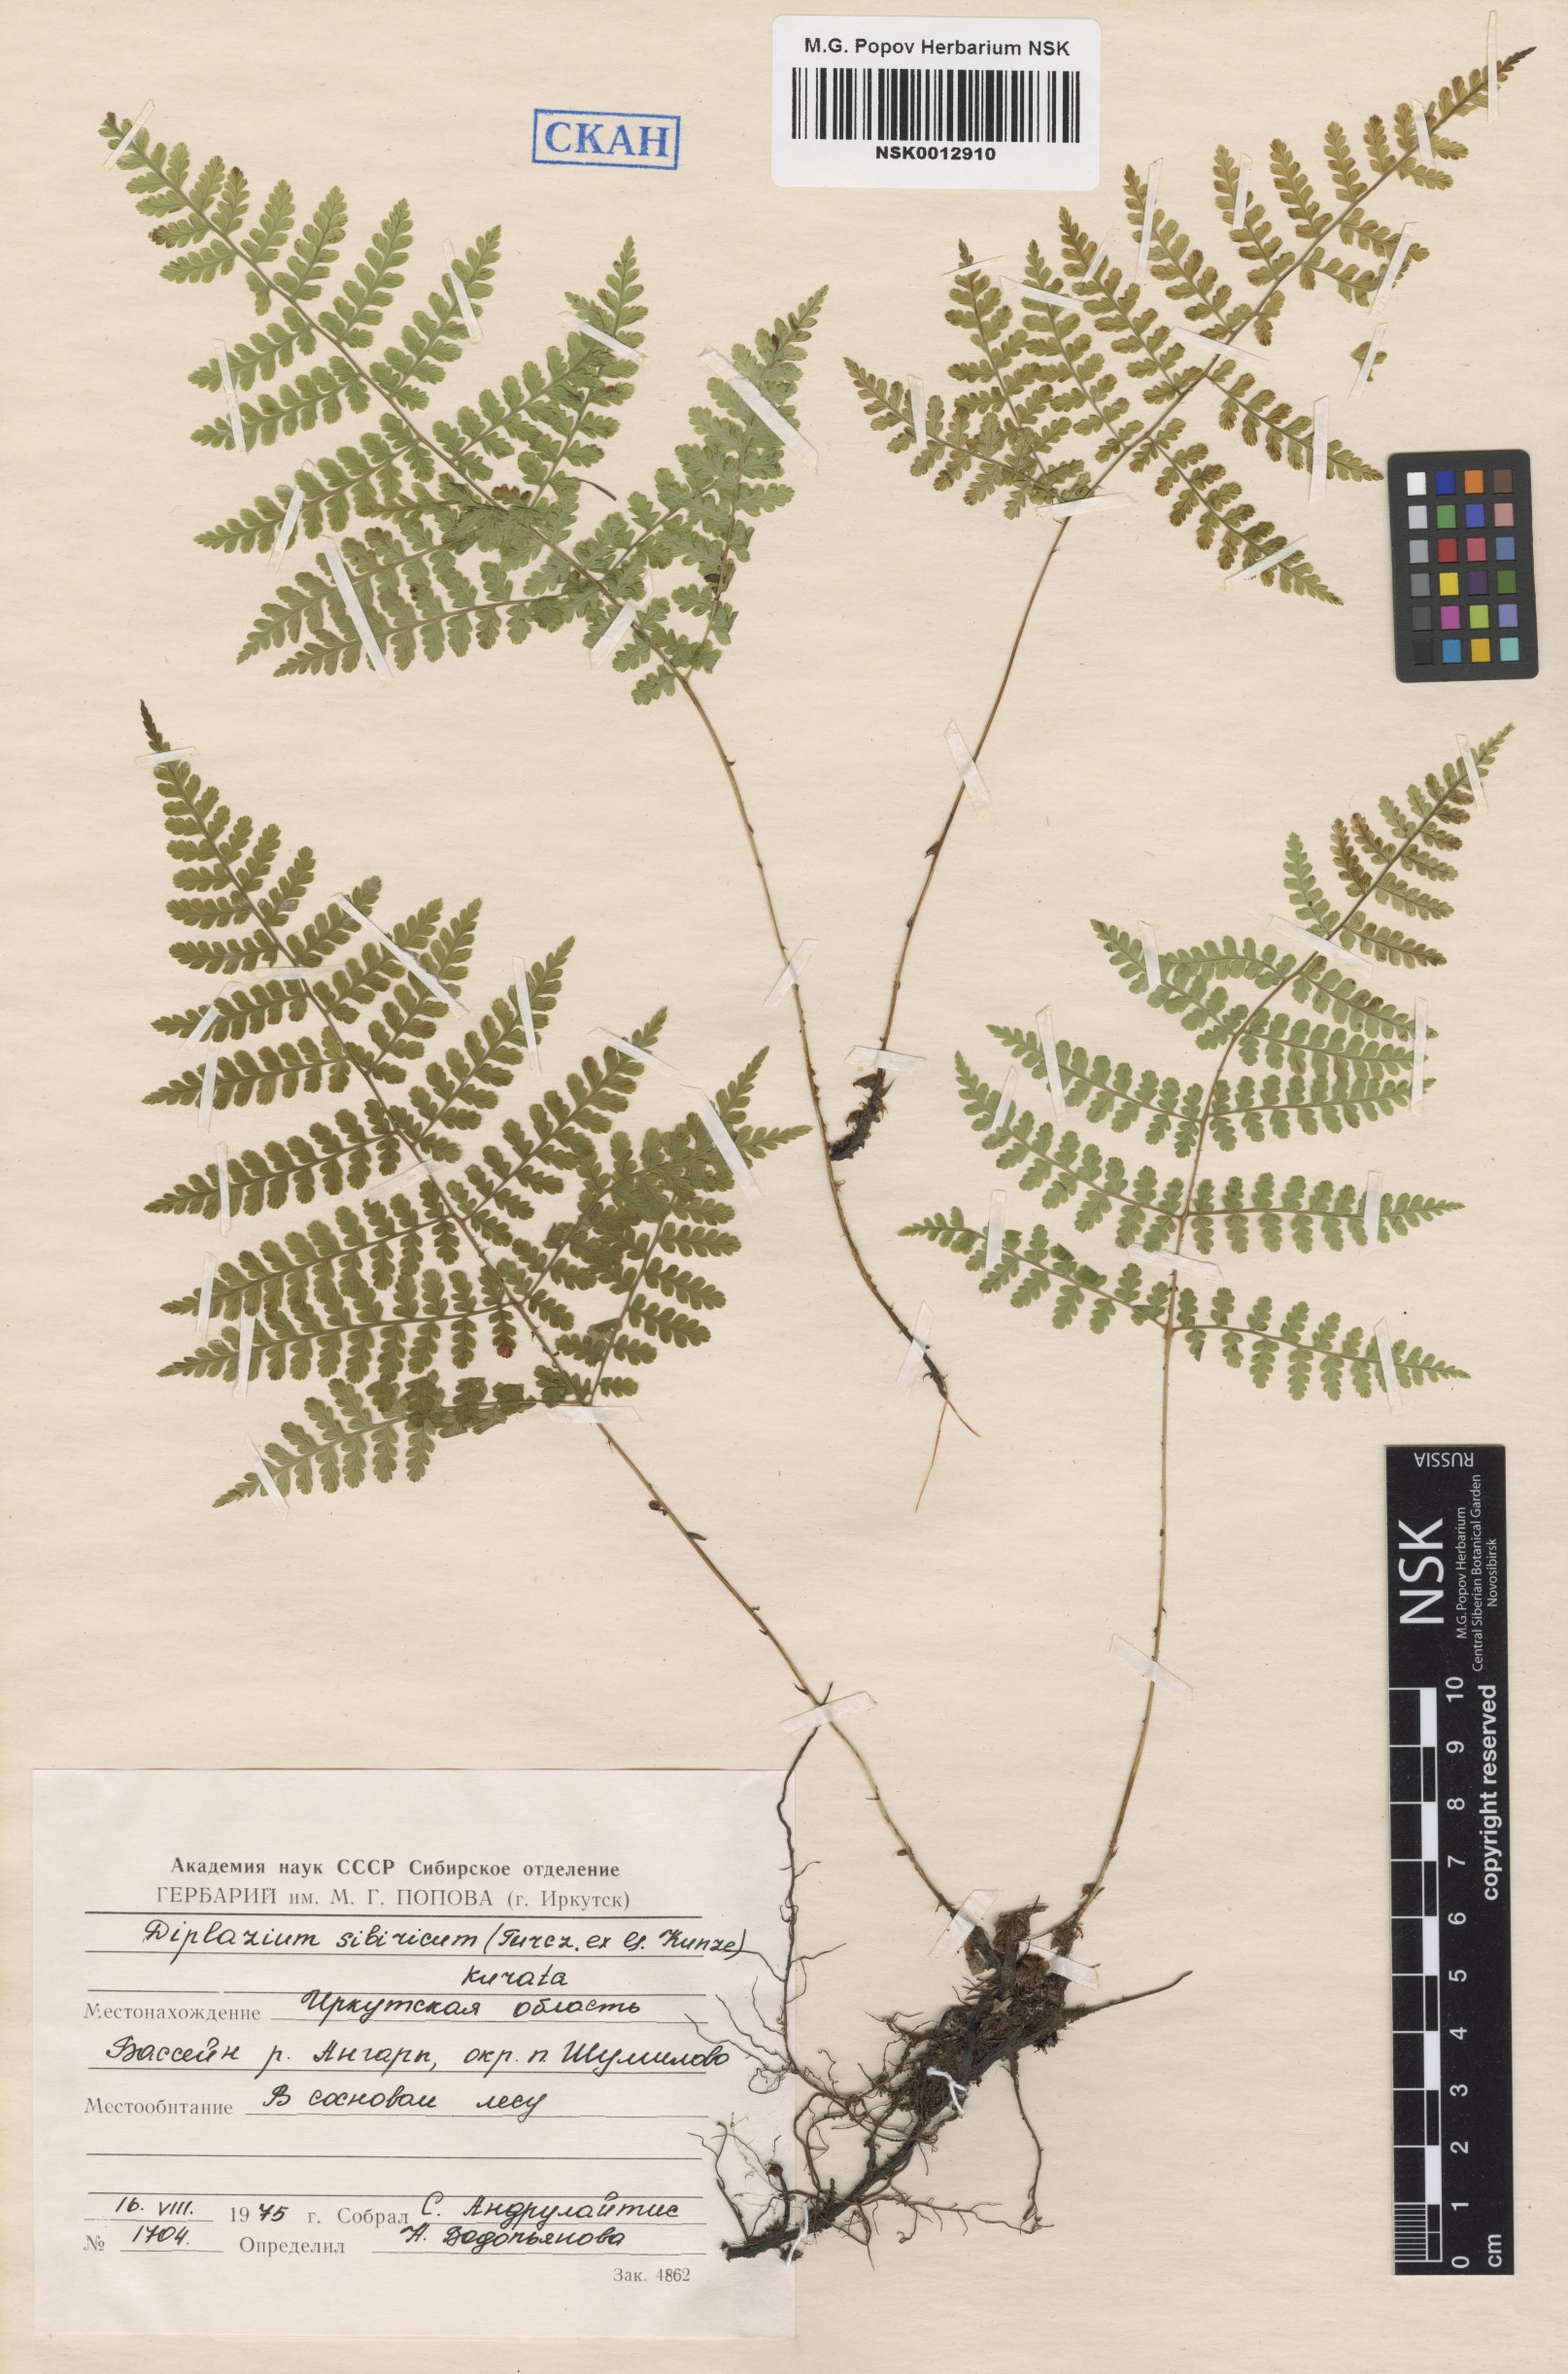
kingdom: Plantae
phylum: Tracheophyta
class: Polypodiopsida
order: Polypodiales
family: Athyriaceae
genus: Diplazium
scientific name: Diplazium sibiricum
